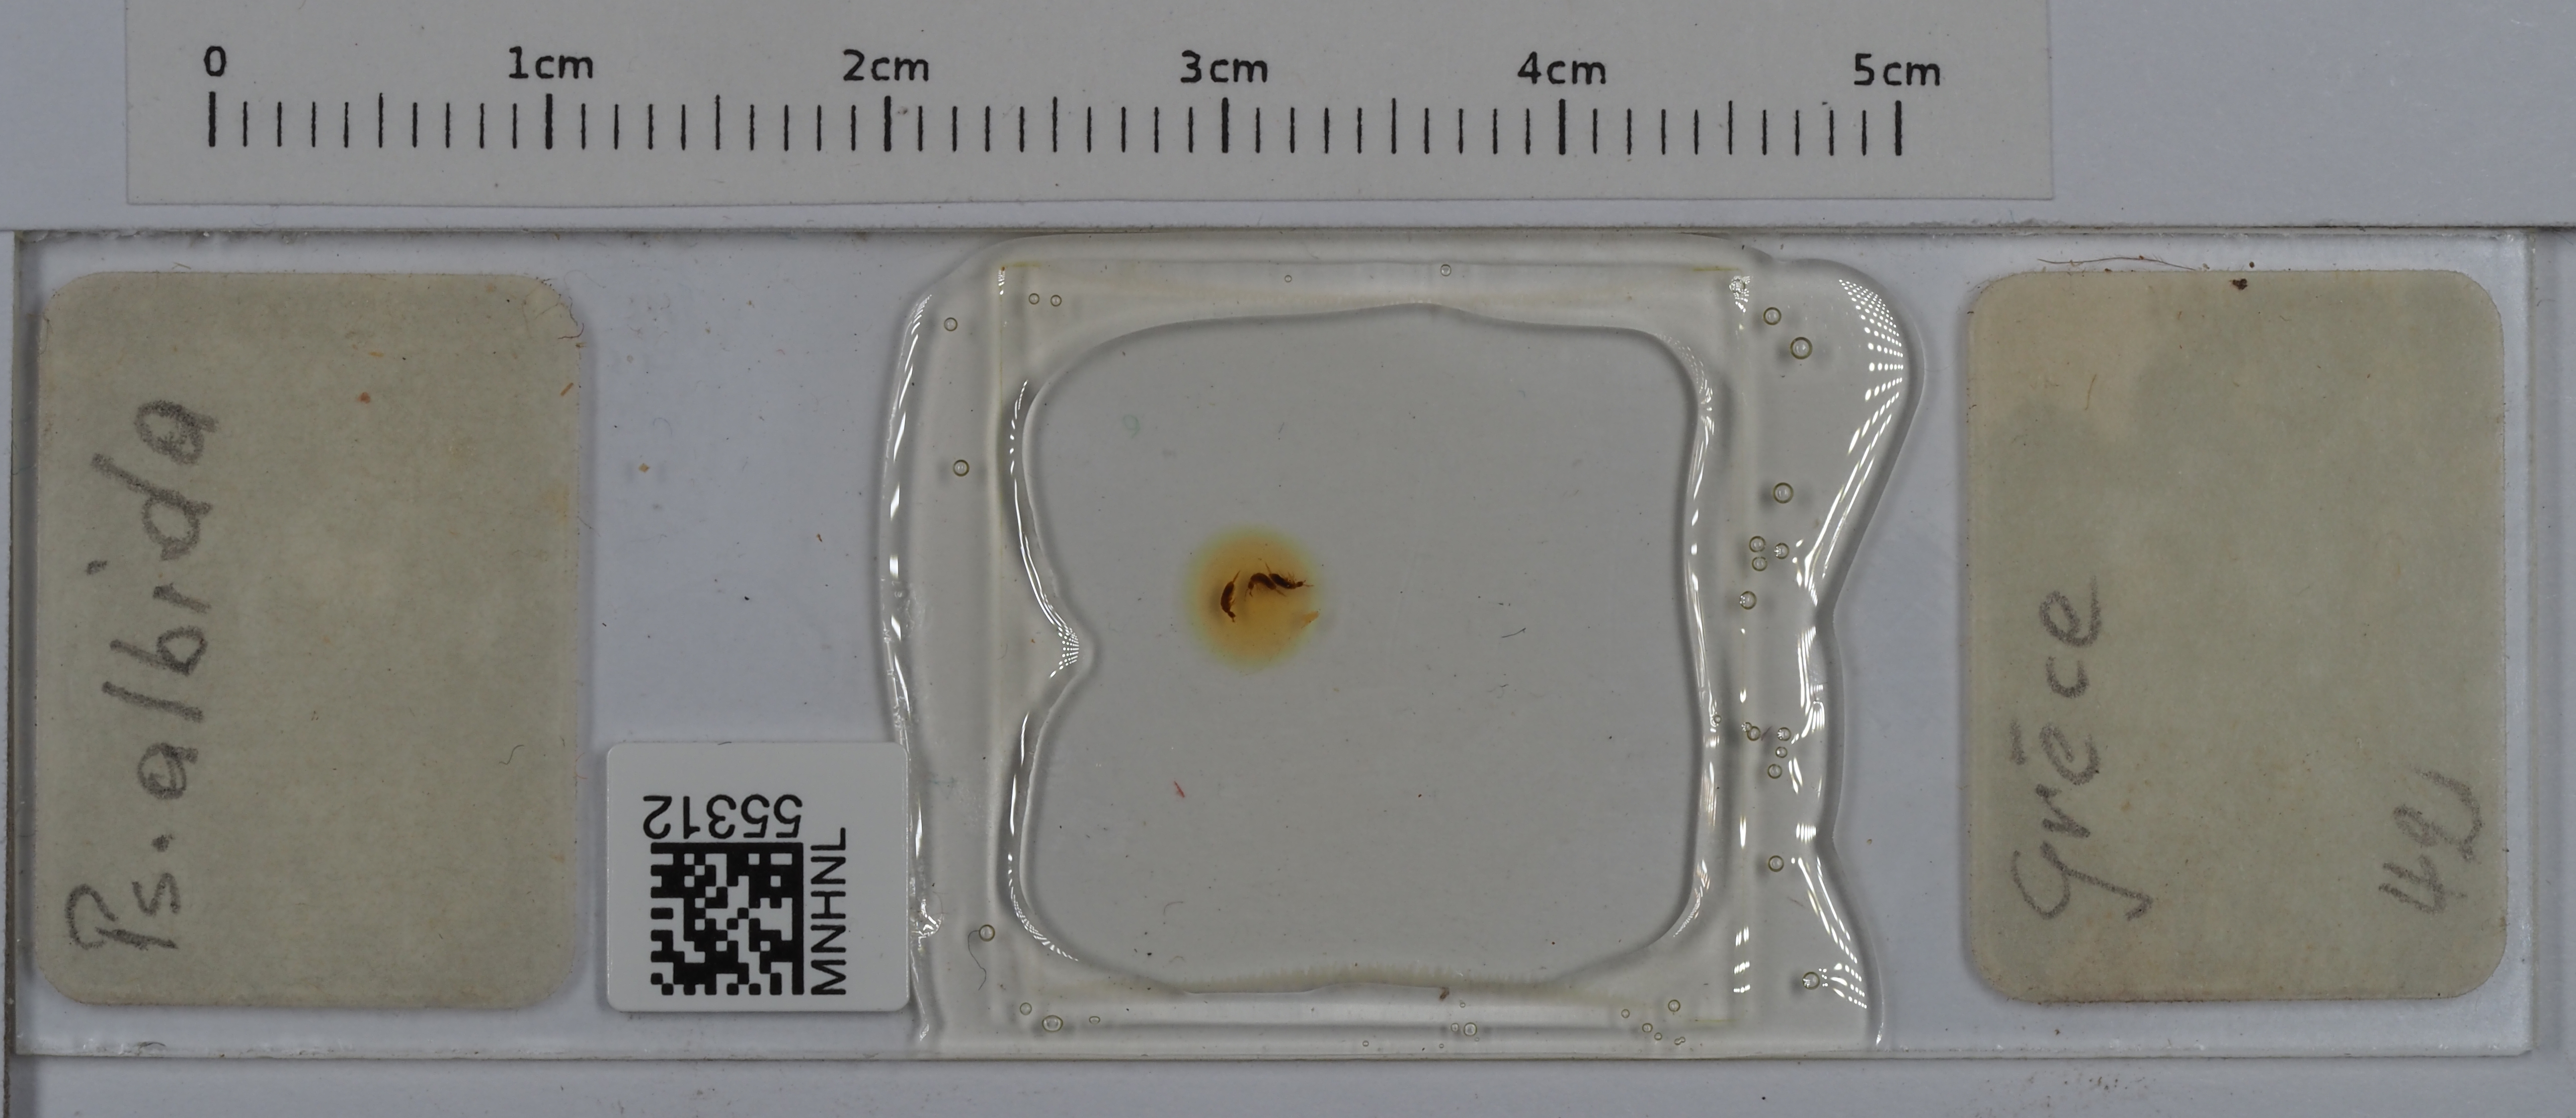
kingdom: Animalia
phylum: Arthropoda
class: Collembola
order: Entomobryomorpha
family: Entomobryidae
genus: Pseudosinella
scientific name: Pseudosinella albida
